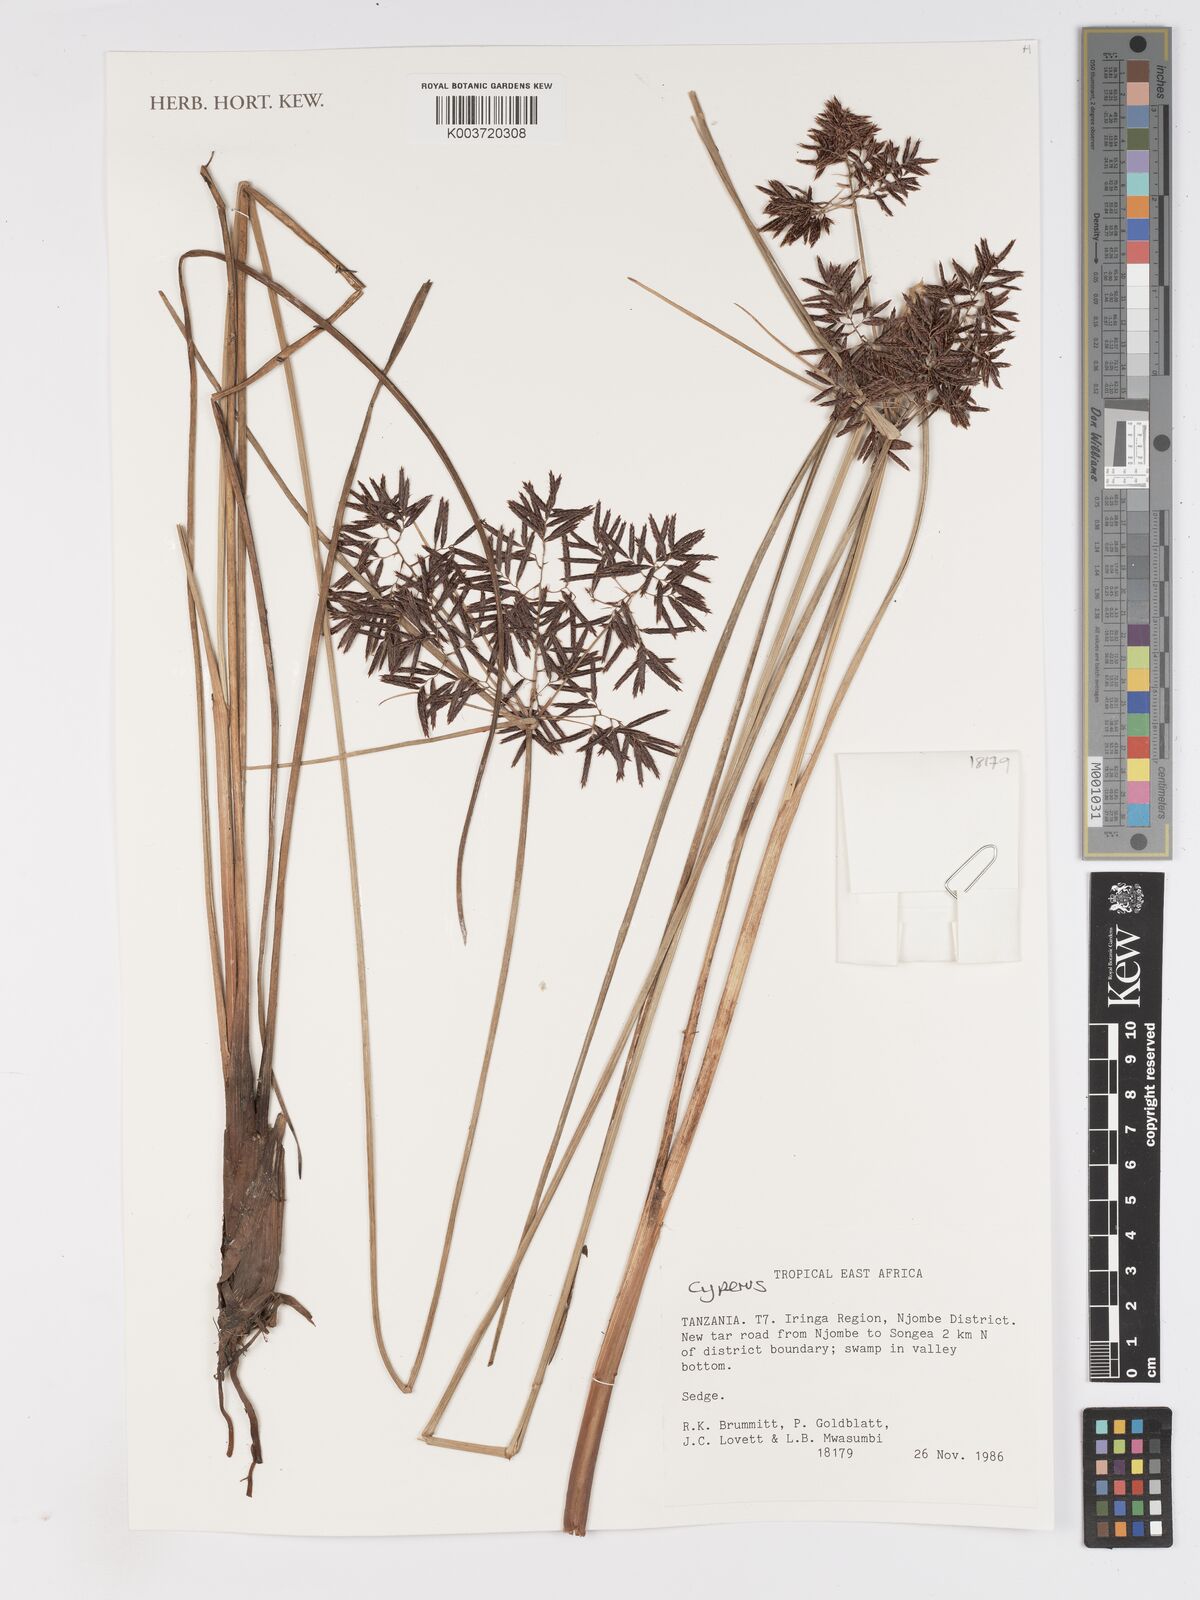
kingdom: Plantae
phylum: Tracheophyta
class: Liliopsida
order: Poales
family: Cyperaceae
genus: Cyperus
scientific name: Cyperus
